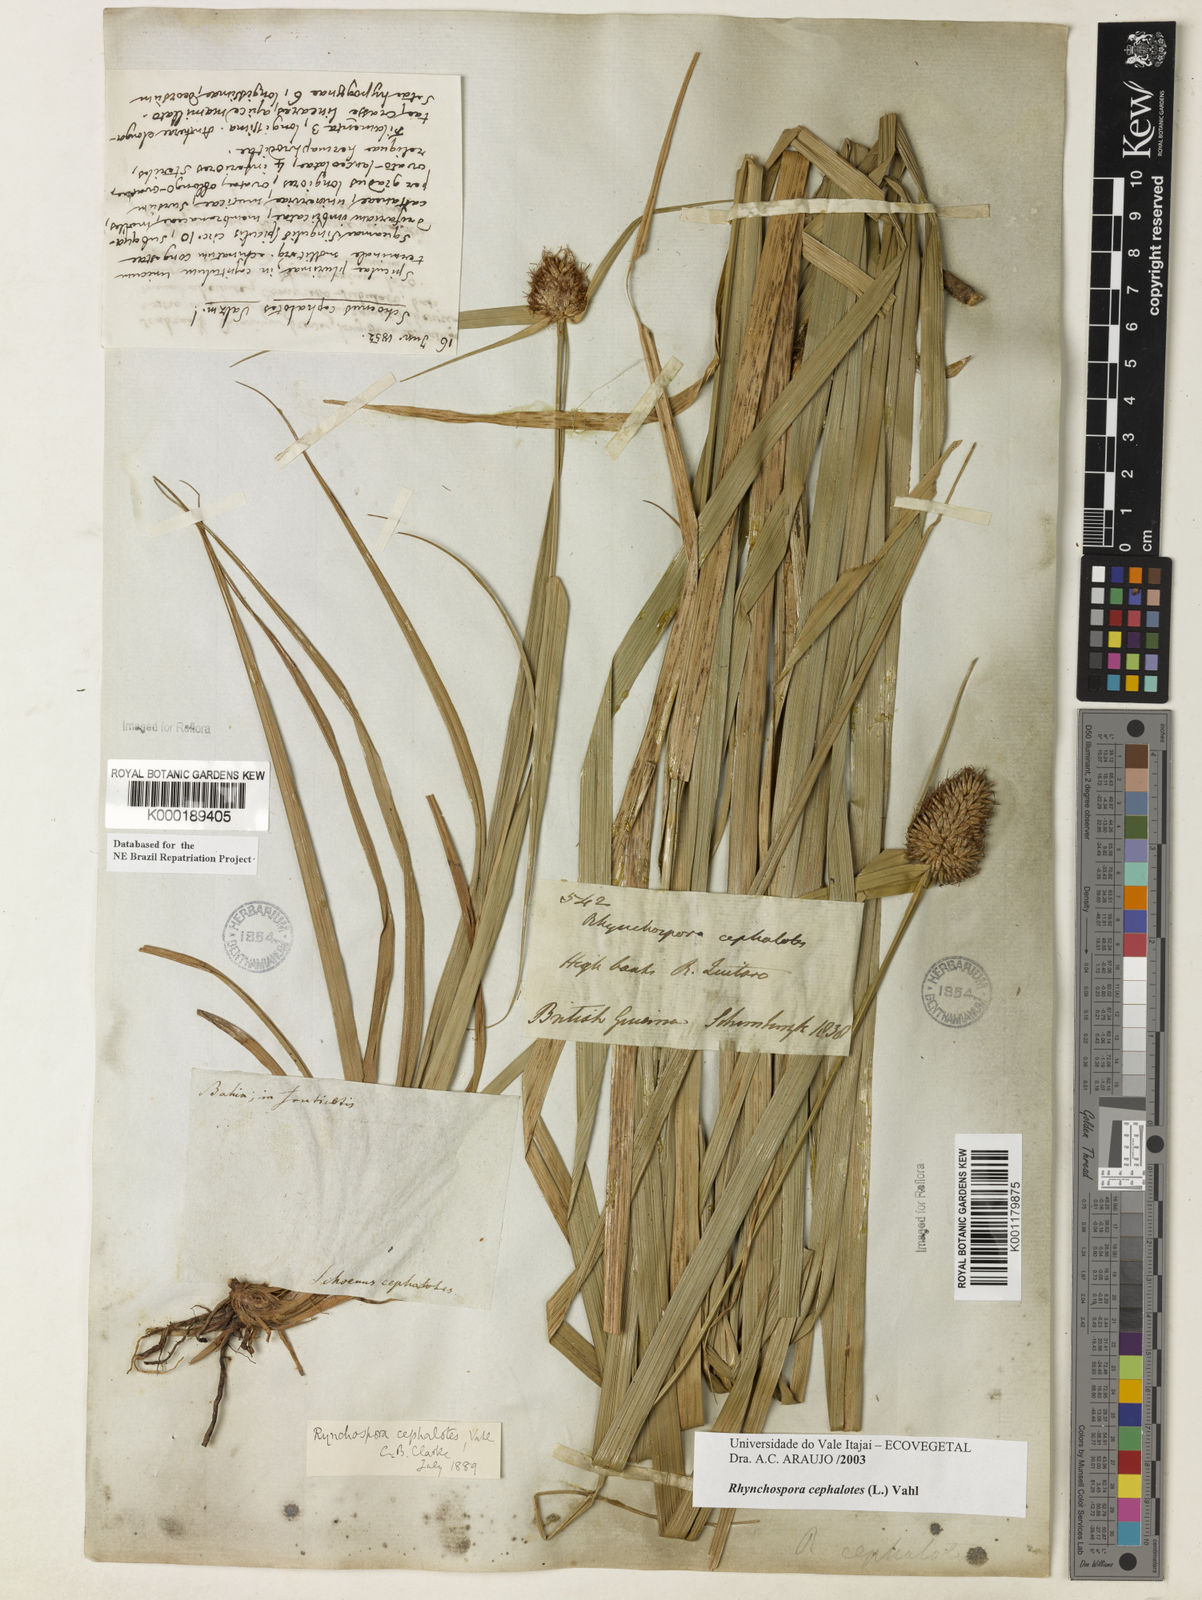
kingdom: Plantae
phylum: Tracheophyta
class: Liliopsida
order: Poales
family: Cyperaceae
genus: Rhynchospora
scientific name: Rhynchospora cephalotes
